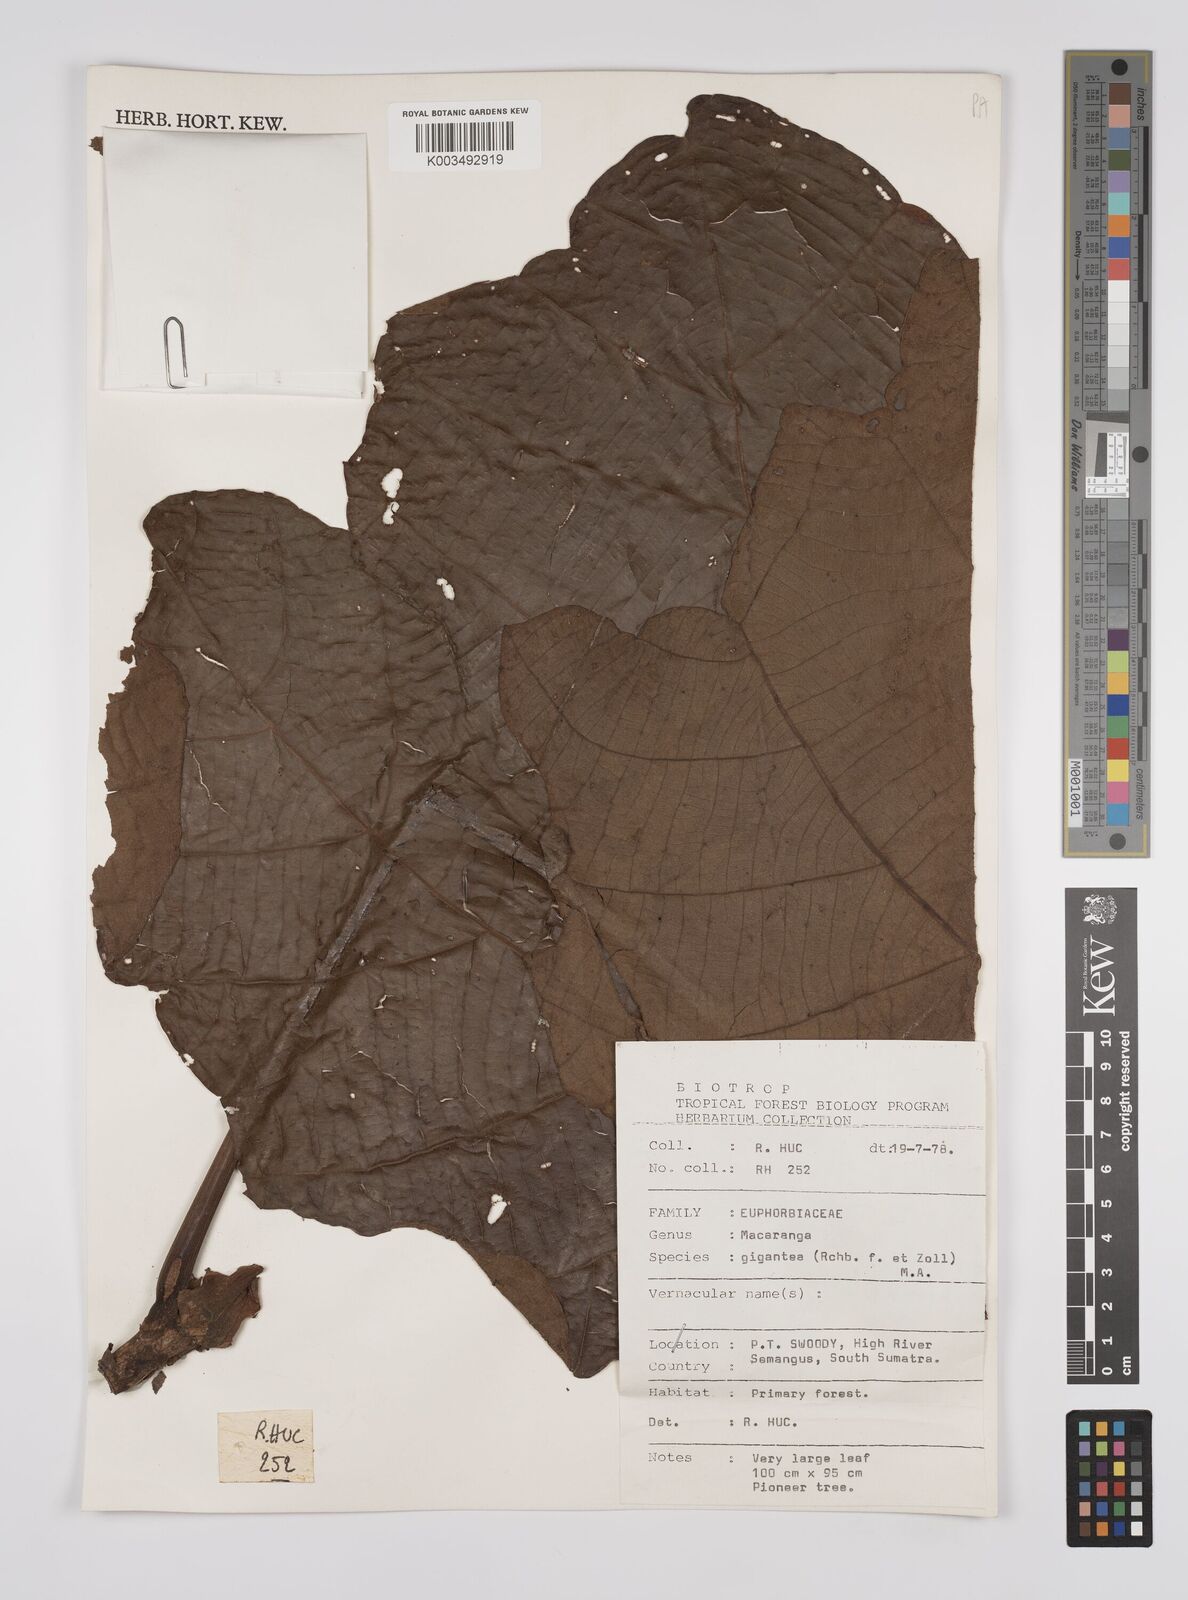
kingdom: Plantae
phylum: Tracheophyta
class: Magnoliopsida
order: Malpighiales
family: Euphorbiaceae
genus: Macaranga
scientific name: Macaranga gigantea
